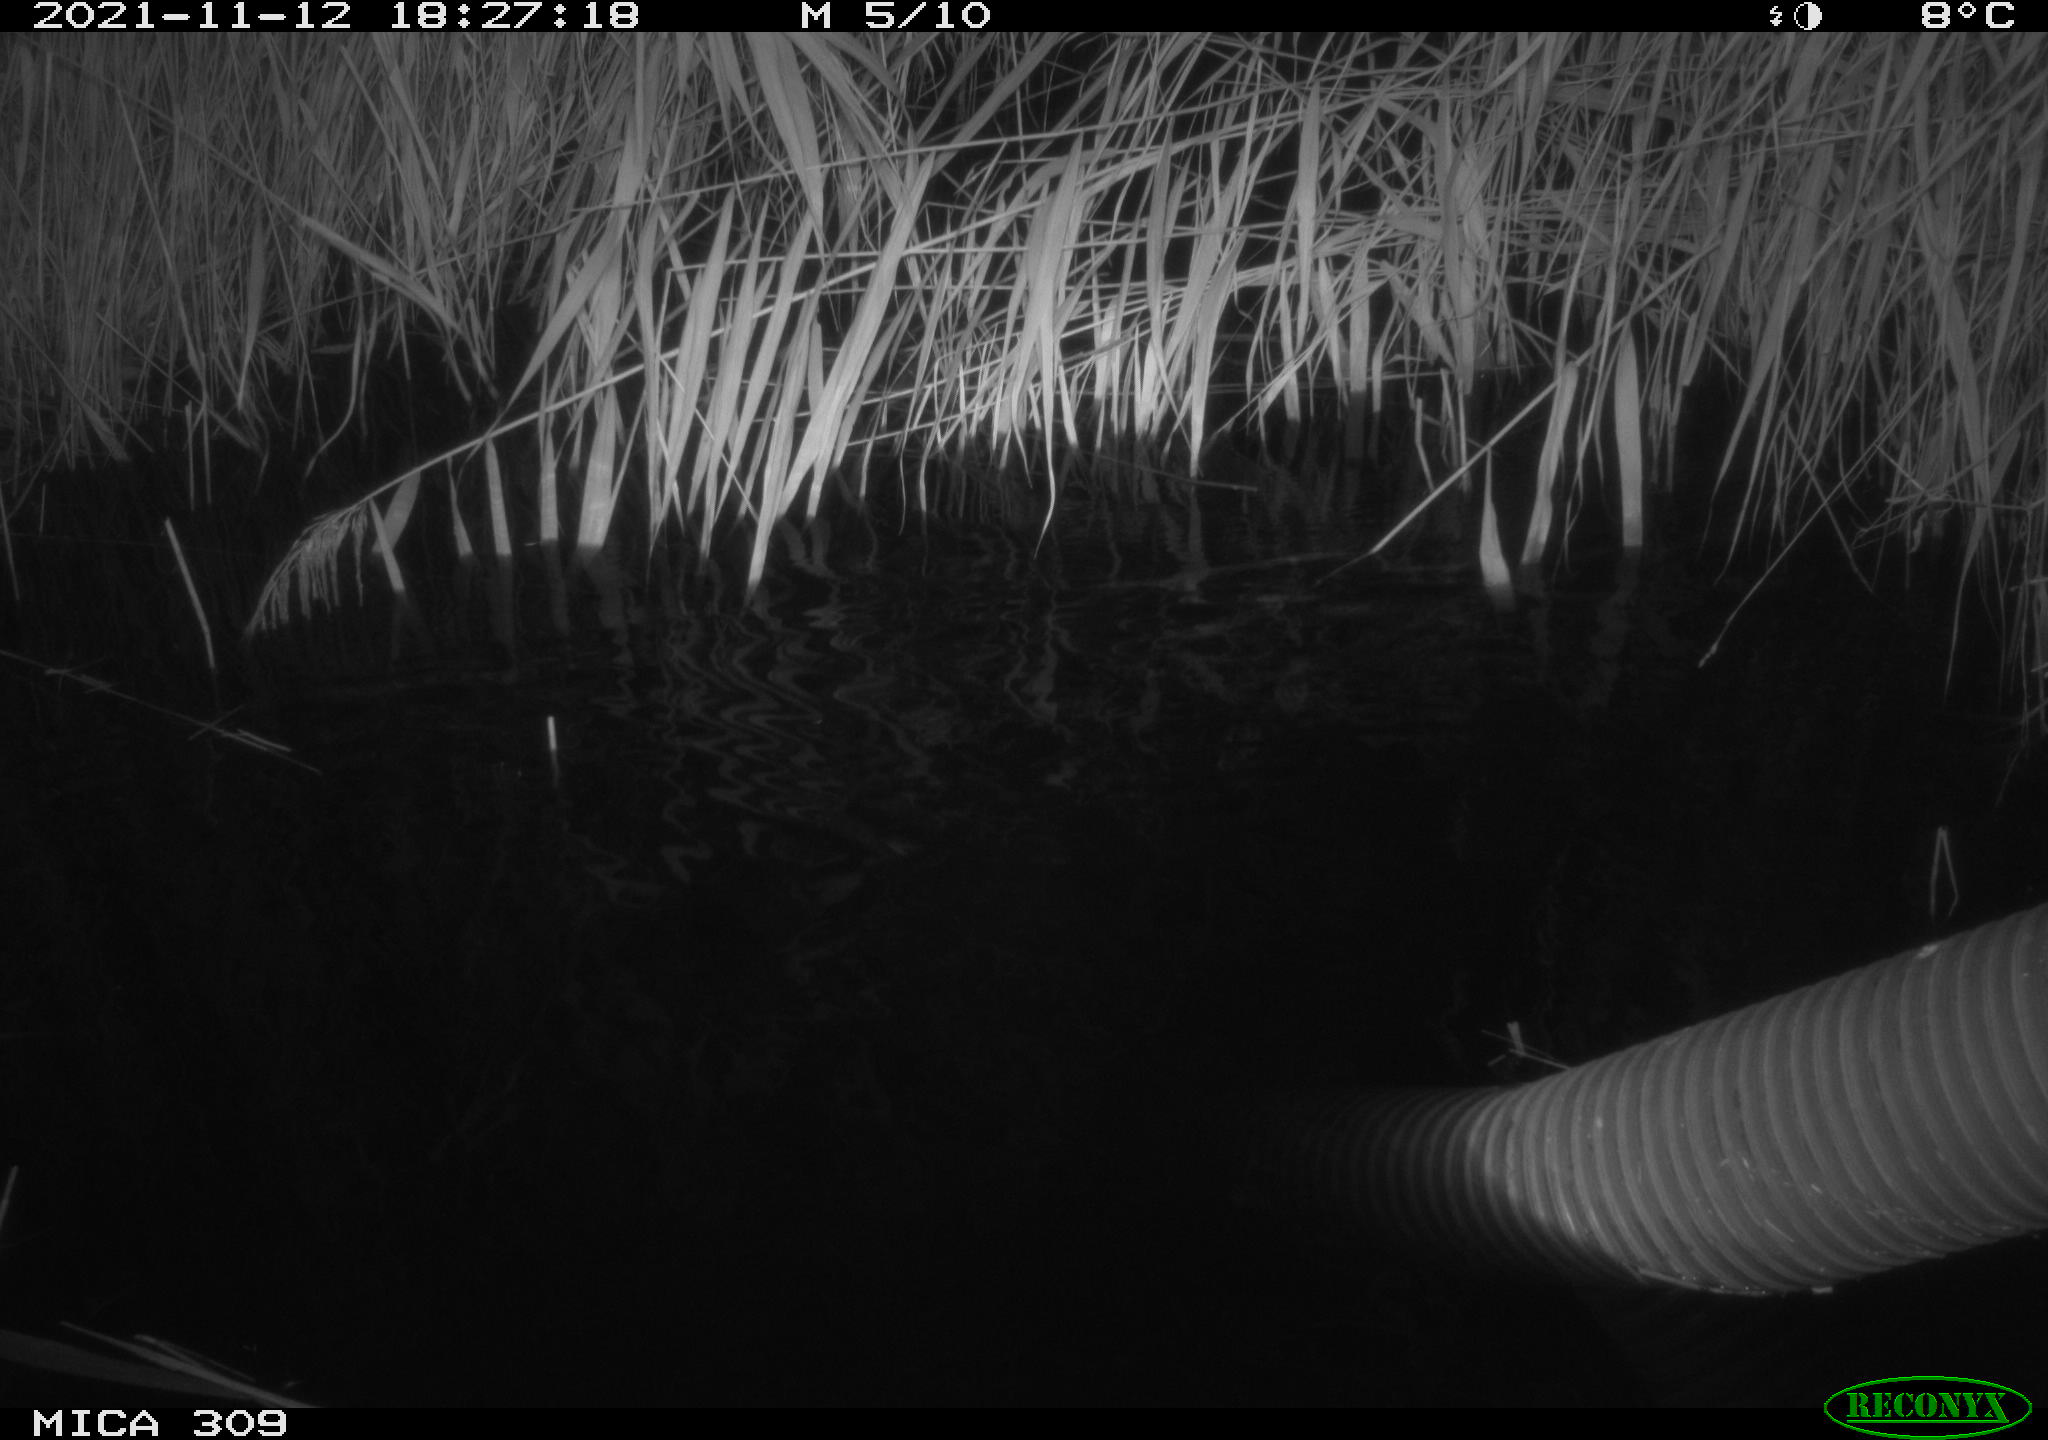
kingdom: Animalia
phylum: Chordata
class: Mammalia
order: Rodentia
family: Muridae
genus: Rattus
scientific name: Rattus norvegicus
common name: Brown rat
